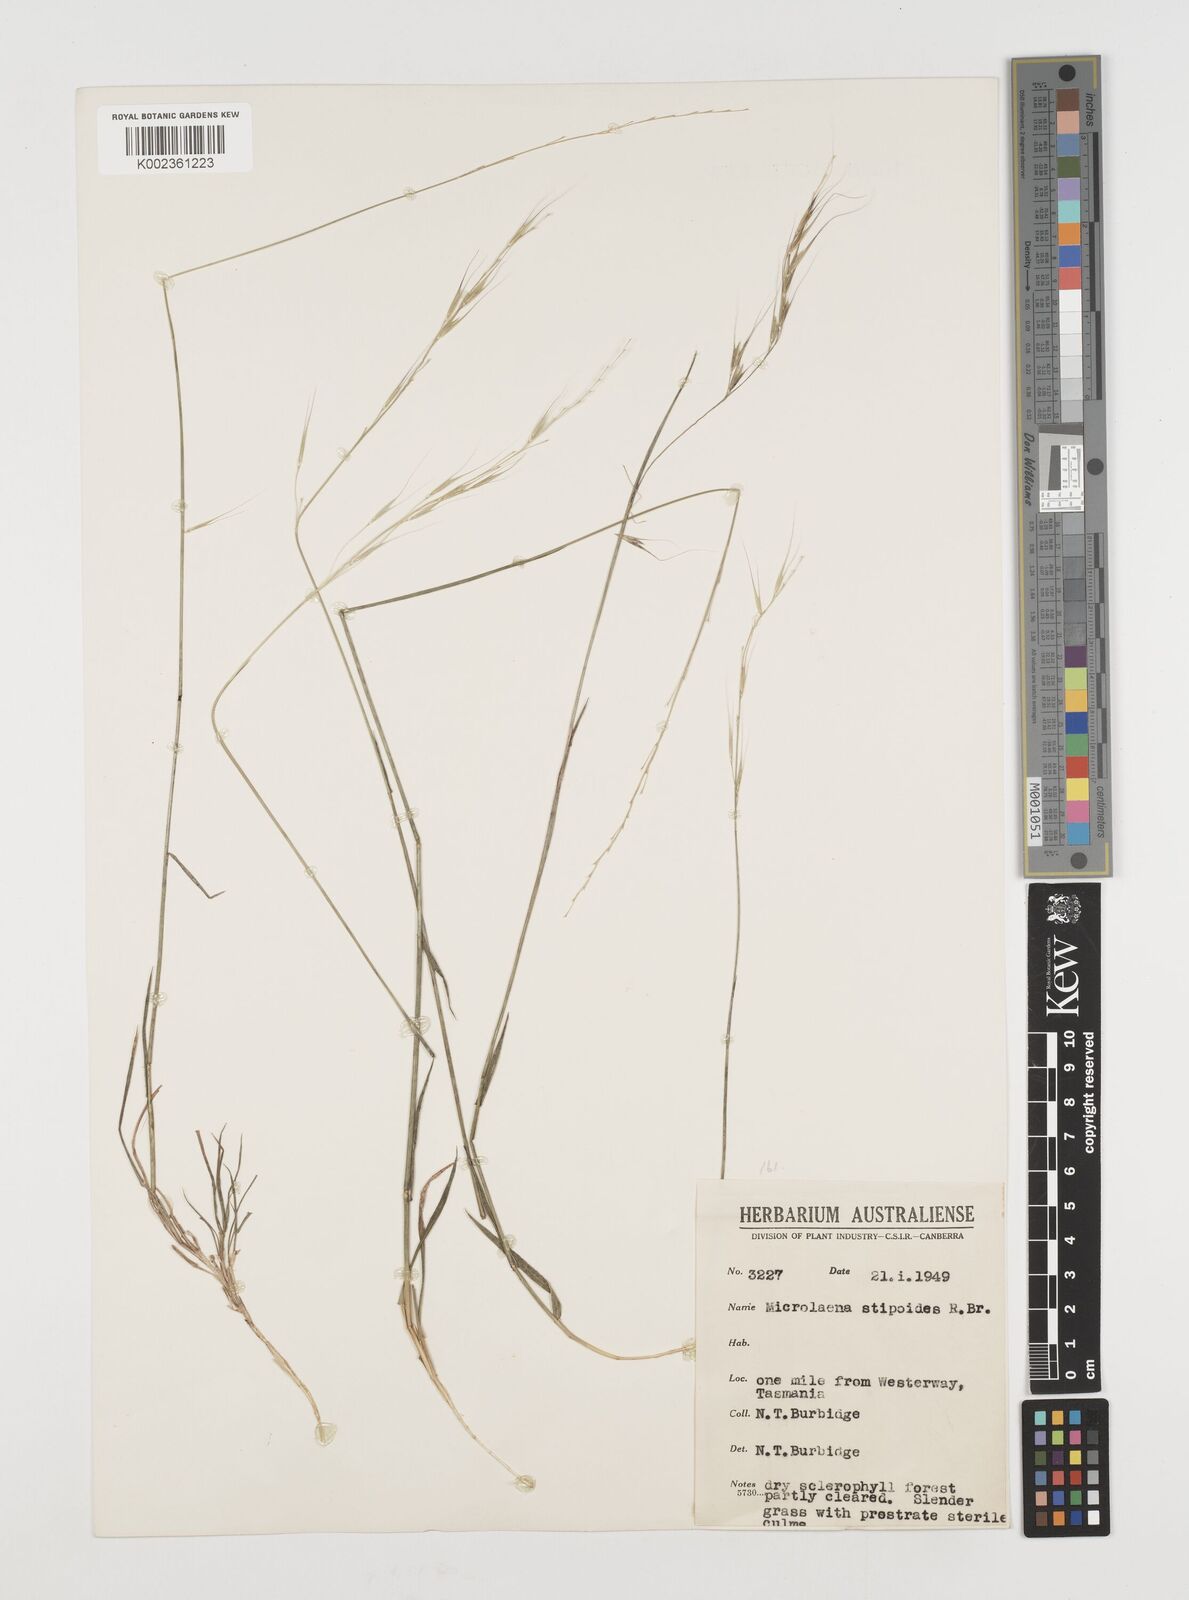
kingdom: Plantae
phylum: Tracheophyta
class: Liliopsida
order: Poales
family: Poaceae
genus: Microlaena
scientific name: Microlaena stipoides
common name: Meadow ricegrass
